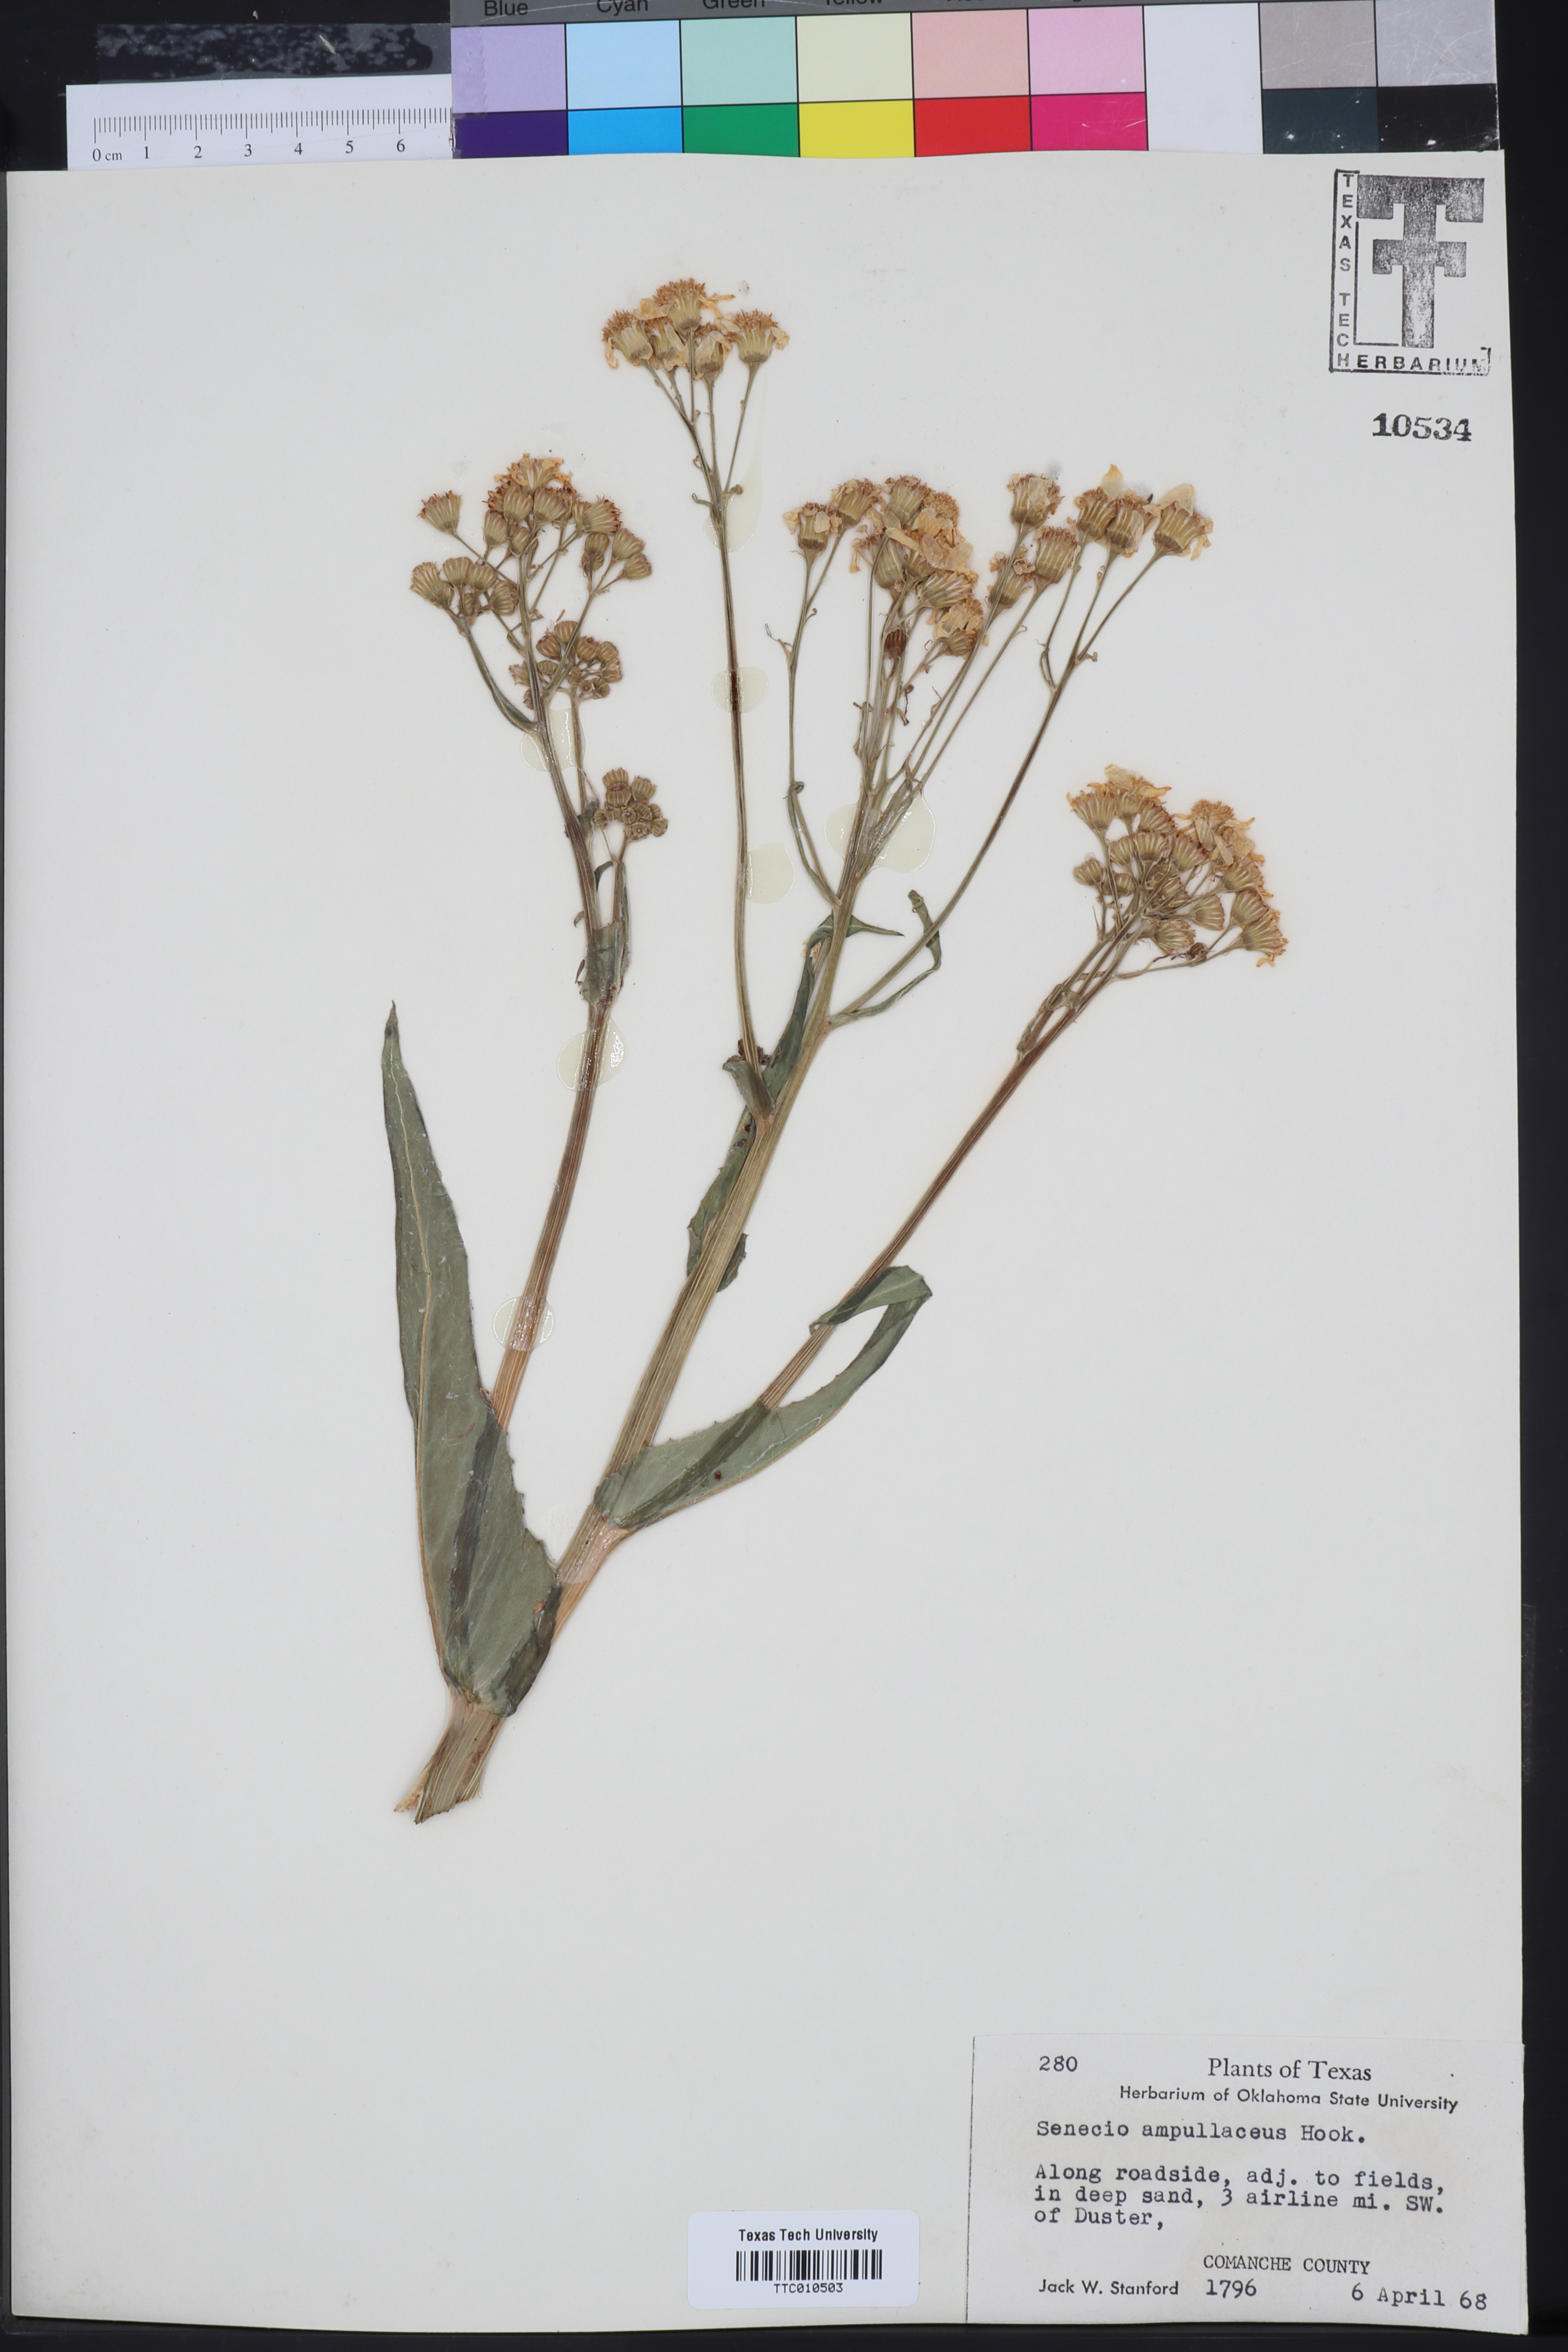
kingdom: Plantae
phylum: Tracheophyta
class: Magnoliopsida
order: Asterales
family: Asteraceae
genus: Senecio
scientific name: Senecio ampullaceus
